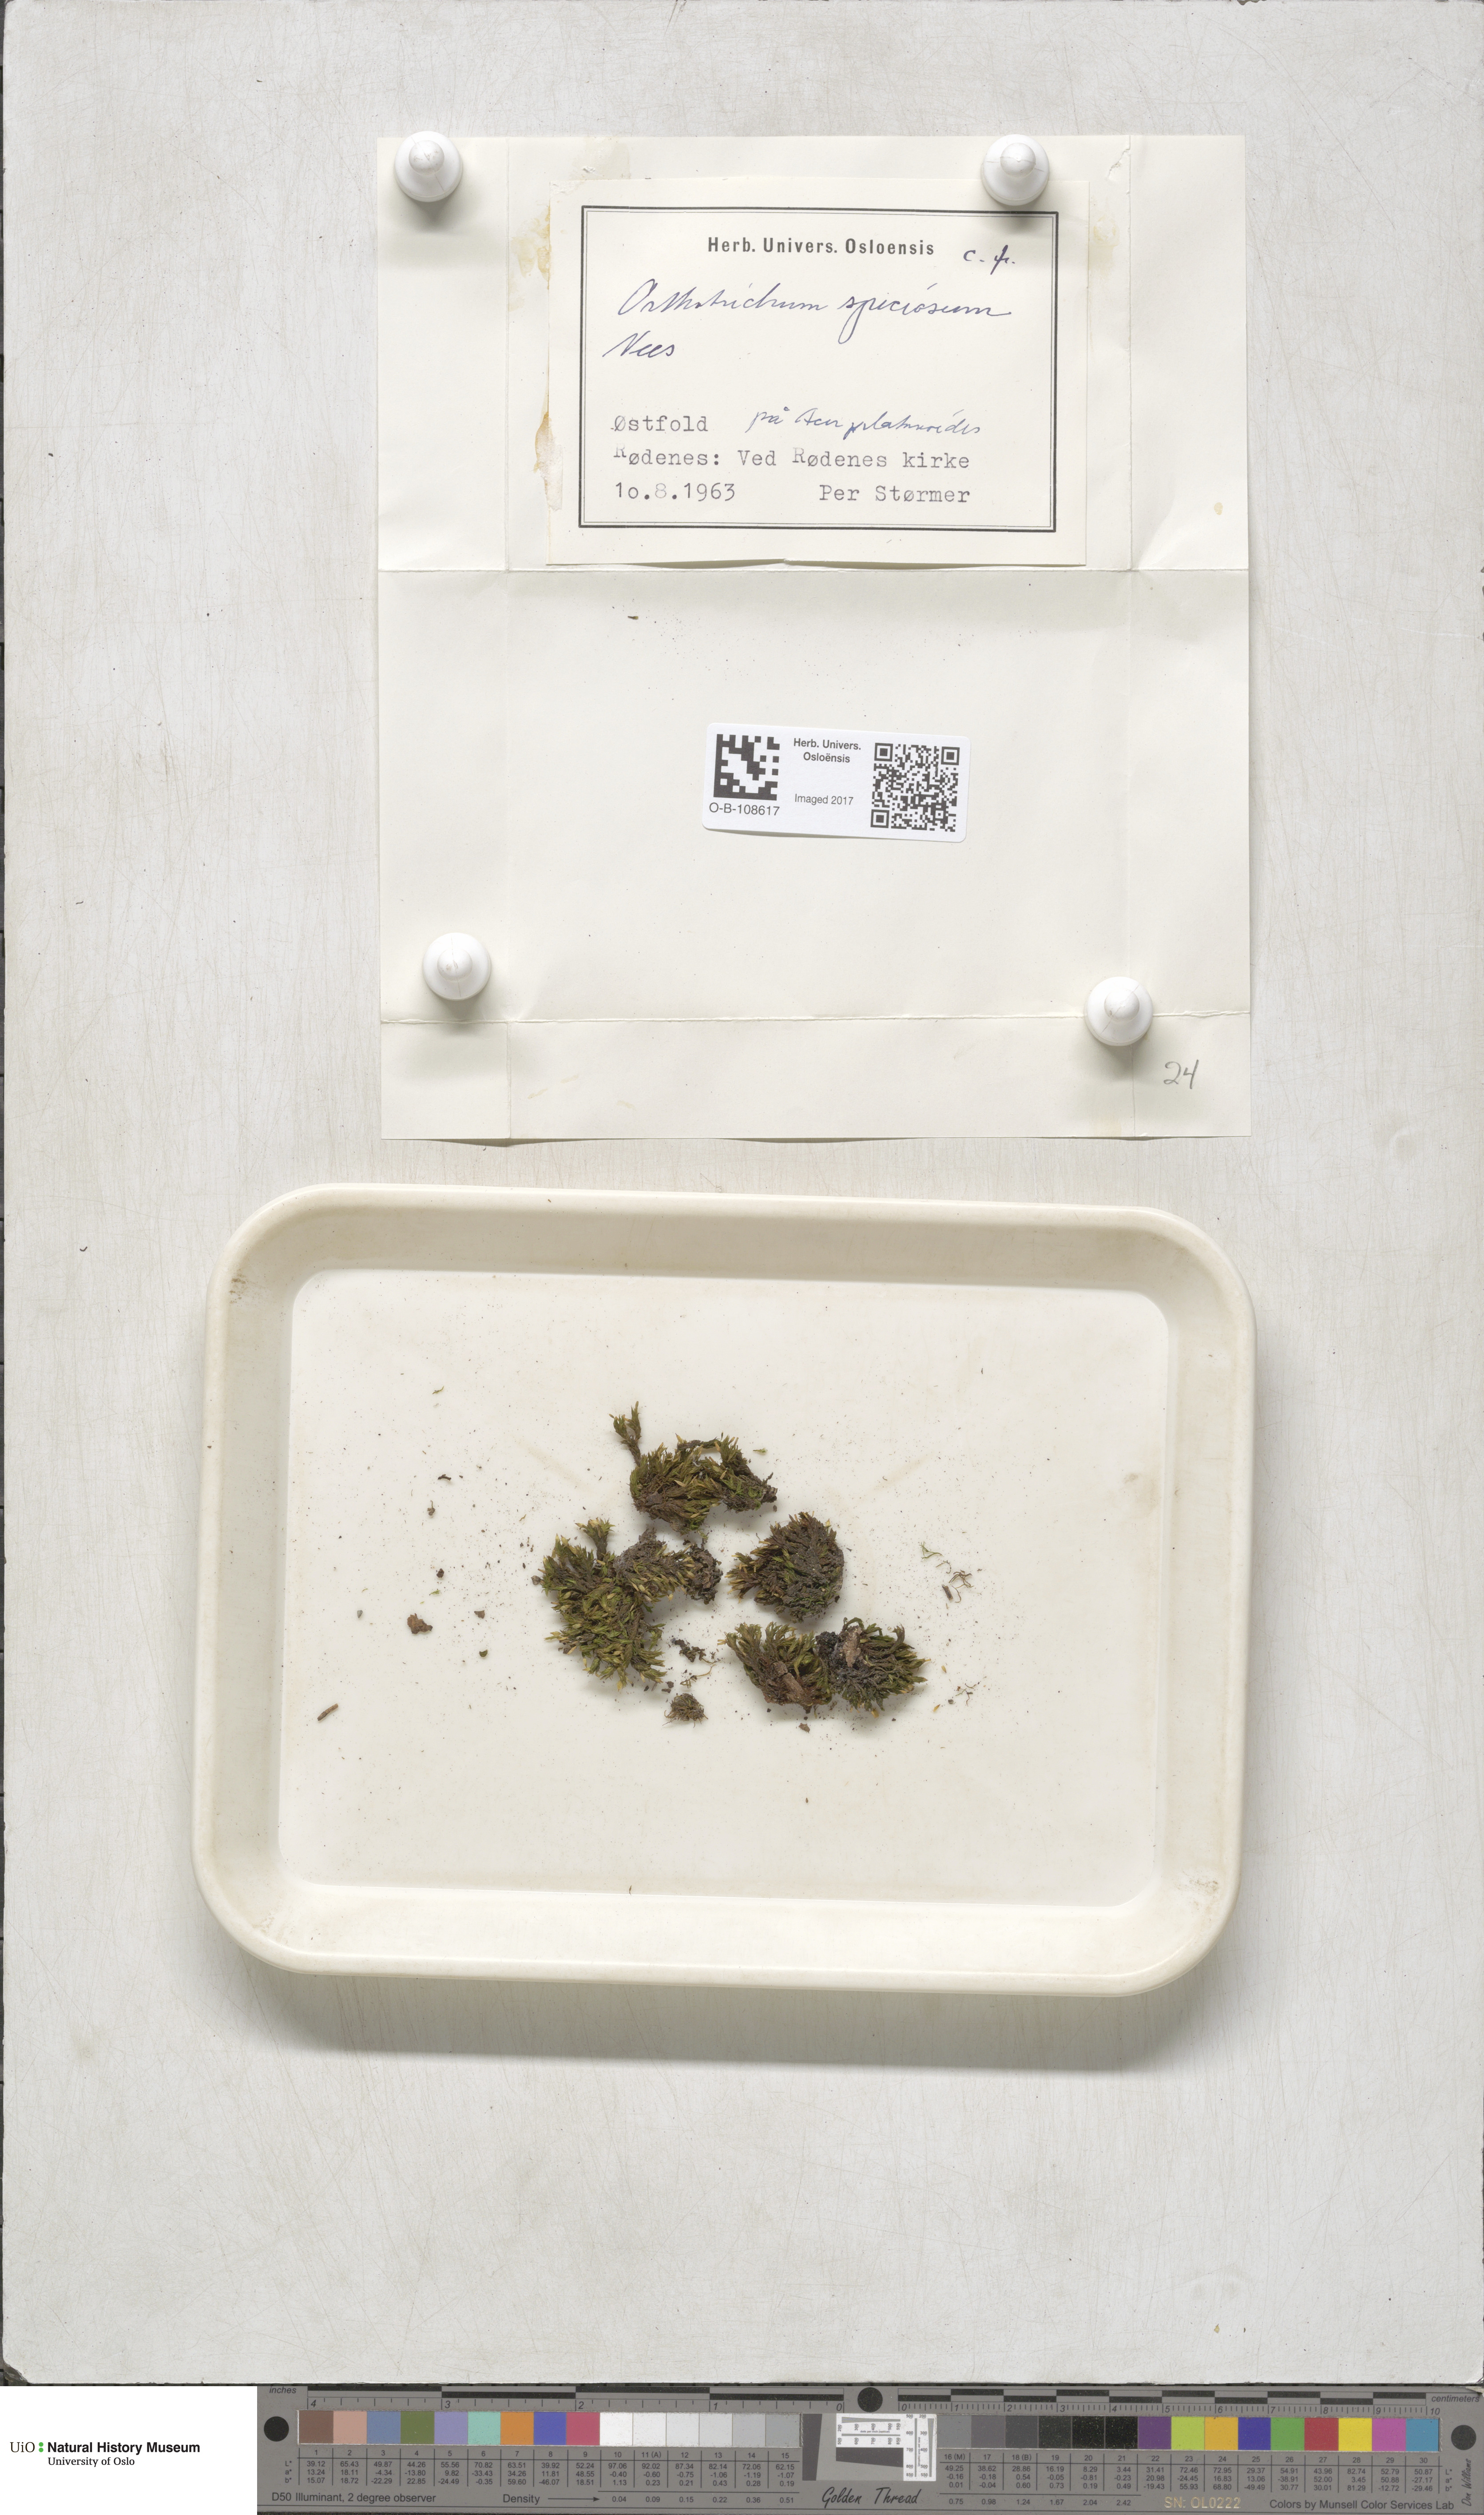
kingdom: Plantae
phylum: Bryophyta
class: Bryopsida
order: Orthotrichales
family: Orthotrichaceae
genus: Lewinskya
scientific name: Lewinskya speciosa
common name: Showy bristle moss
